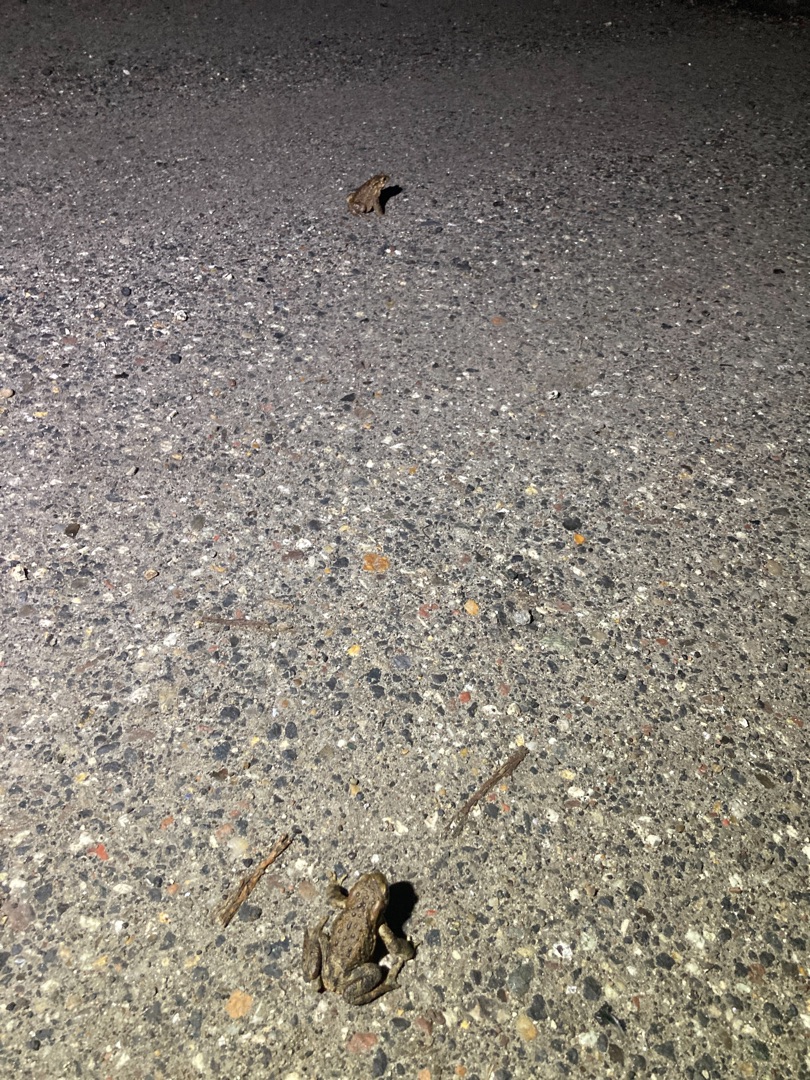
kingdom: Animalia
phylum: Chordata
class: Amphibia
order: Anura
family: Bufonidae
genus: Bufo
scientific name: Bufo bufo
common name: Skrubtudse
